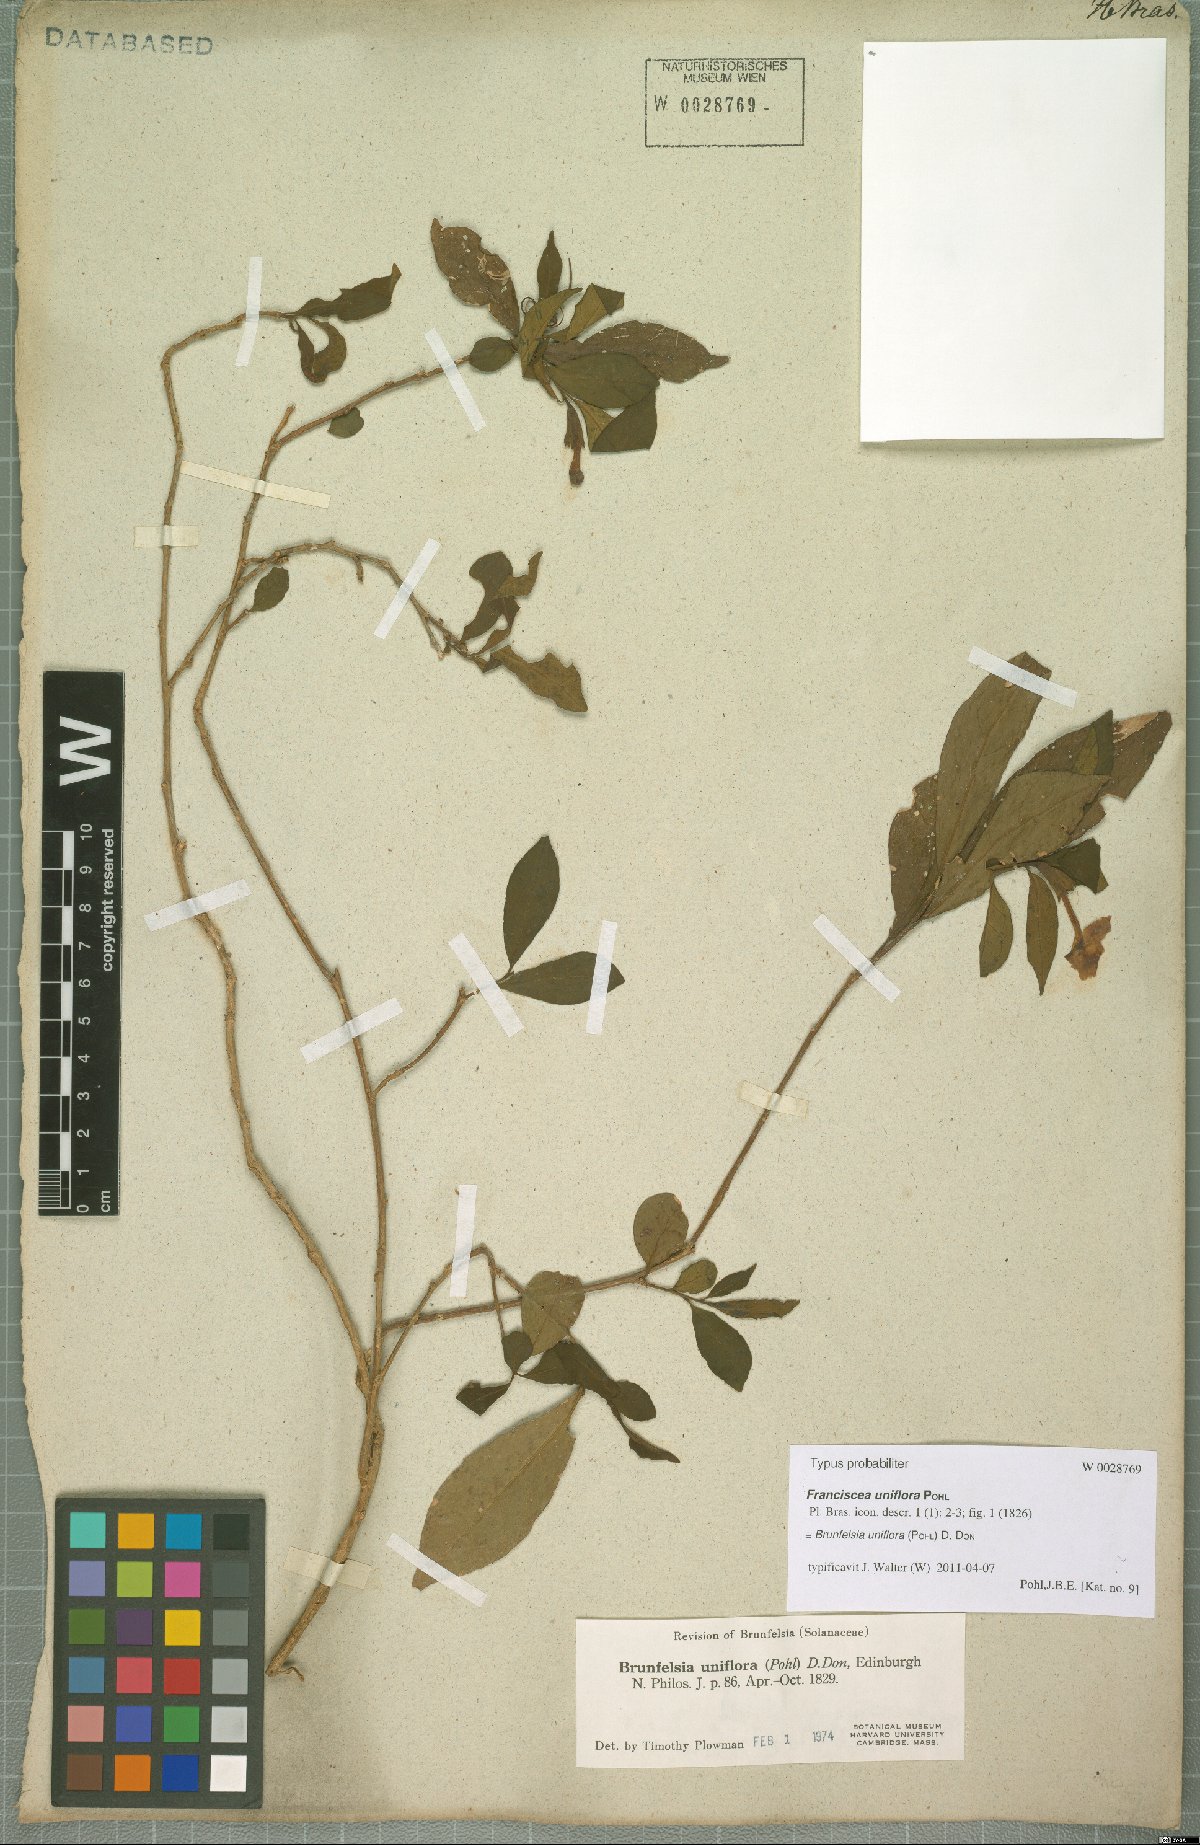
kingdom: Plantae
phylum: Tracheophyta
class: Magnoliopsida
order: Solanales
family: Solanaceae
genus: Brunfelsia
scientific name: Brunfelsia uniflora
